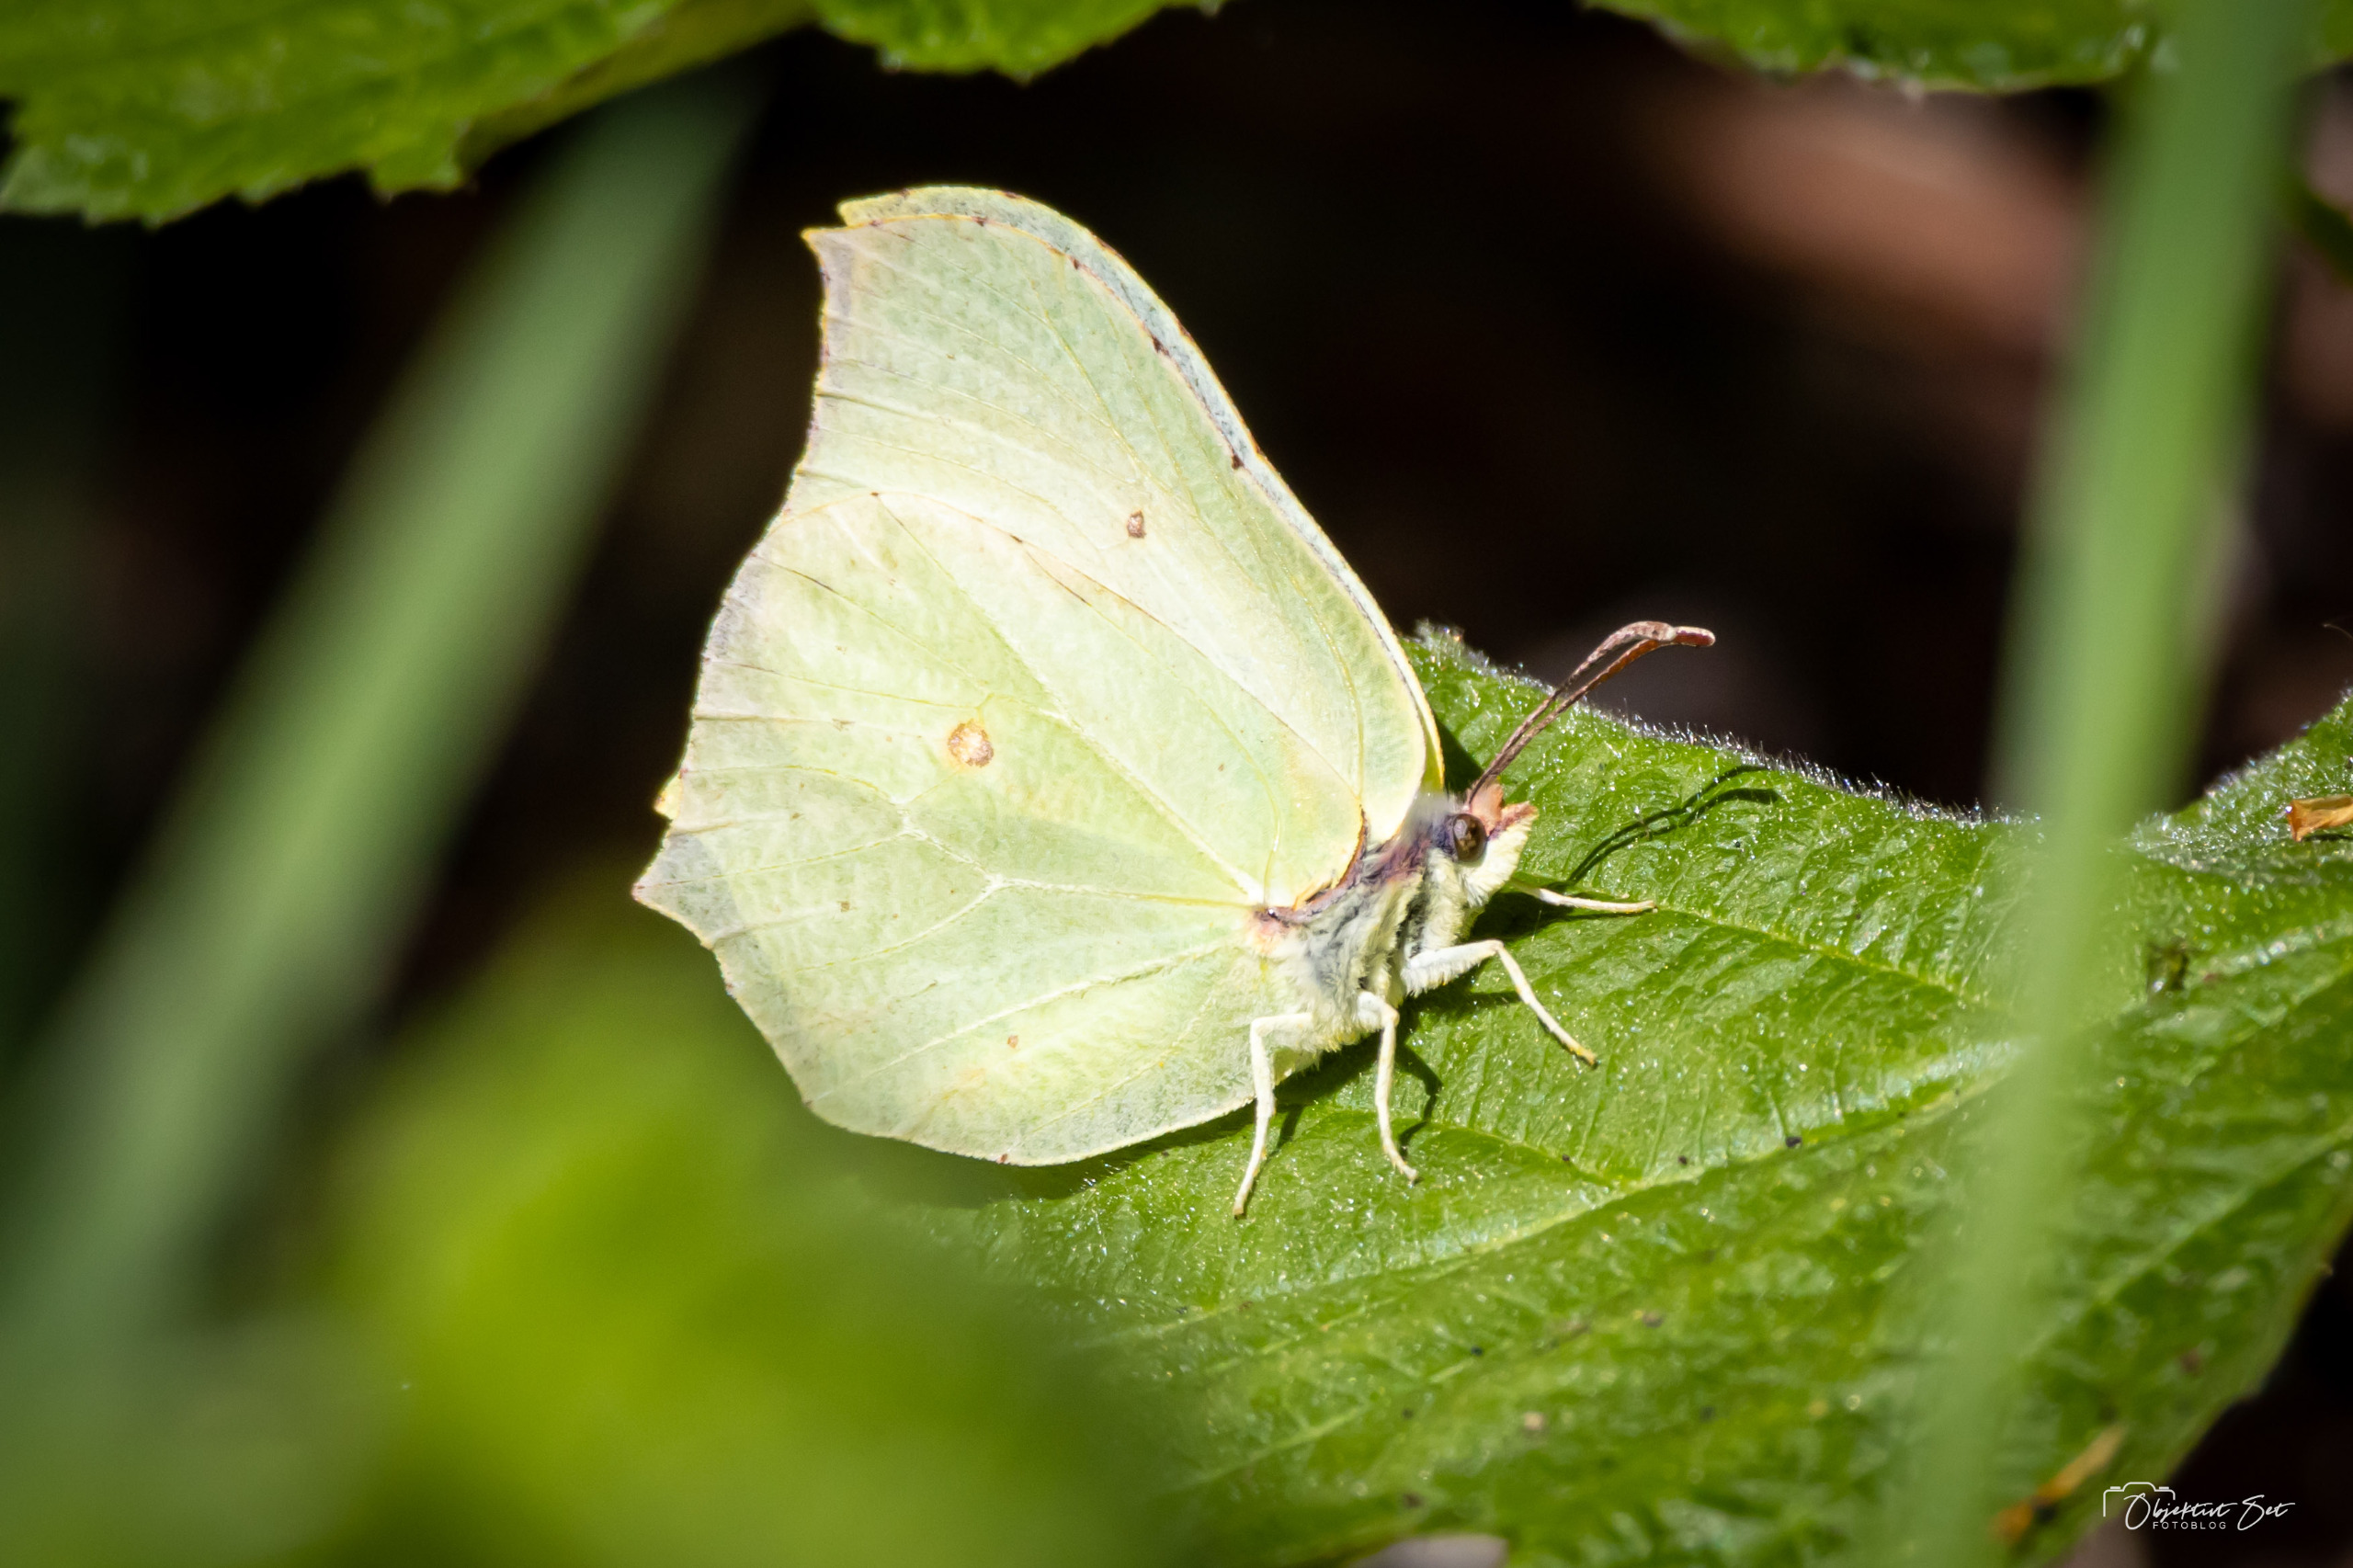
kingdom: Animalia
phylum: Arthropoda
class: Insecta
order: Lepidoptera
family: Pieridae
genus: Gonepteryx
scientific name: Gonepteryx rhamni
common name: Citronsommerfugl
